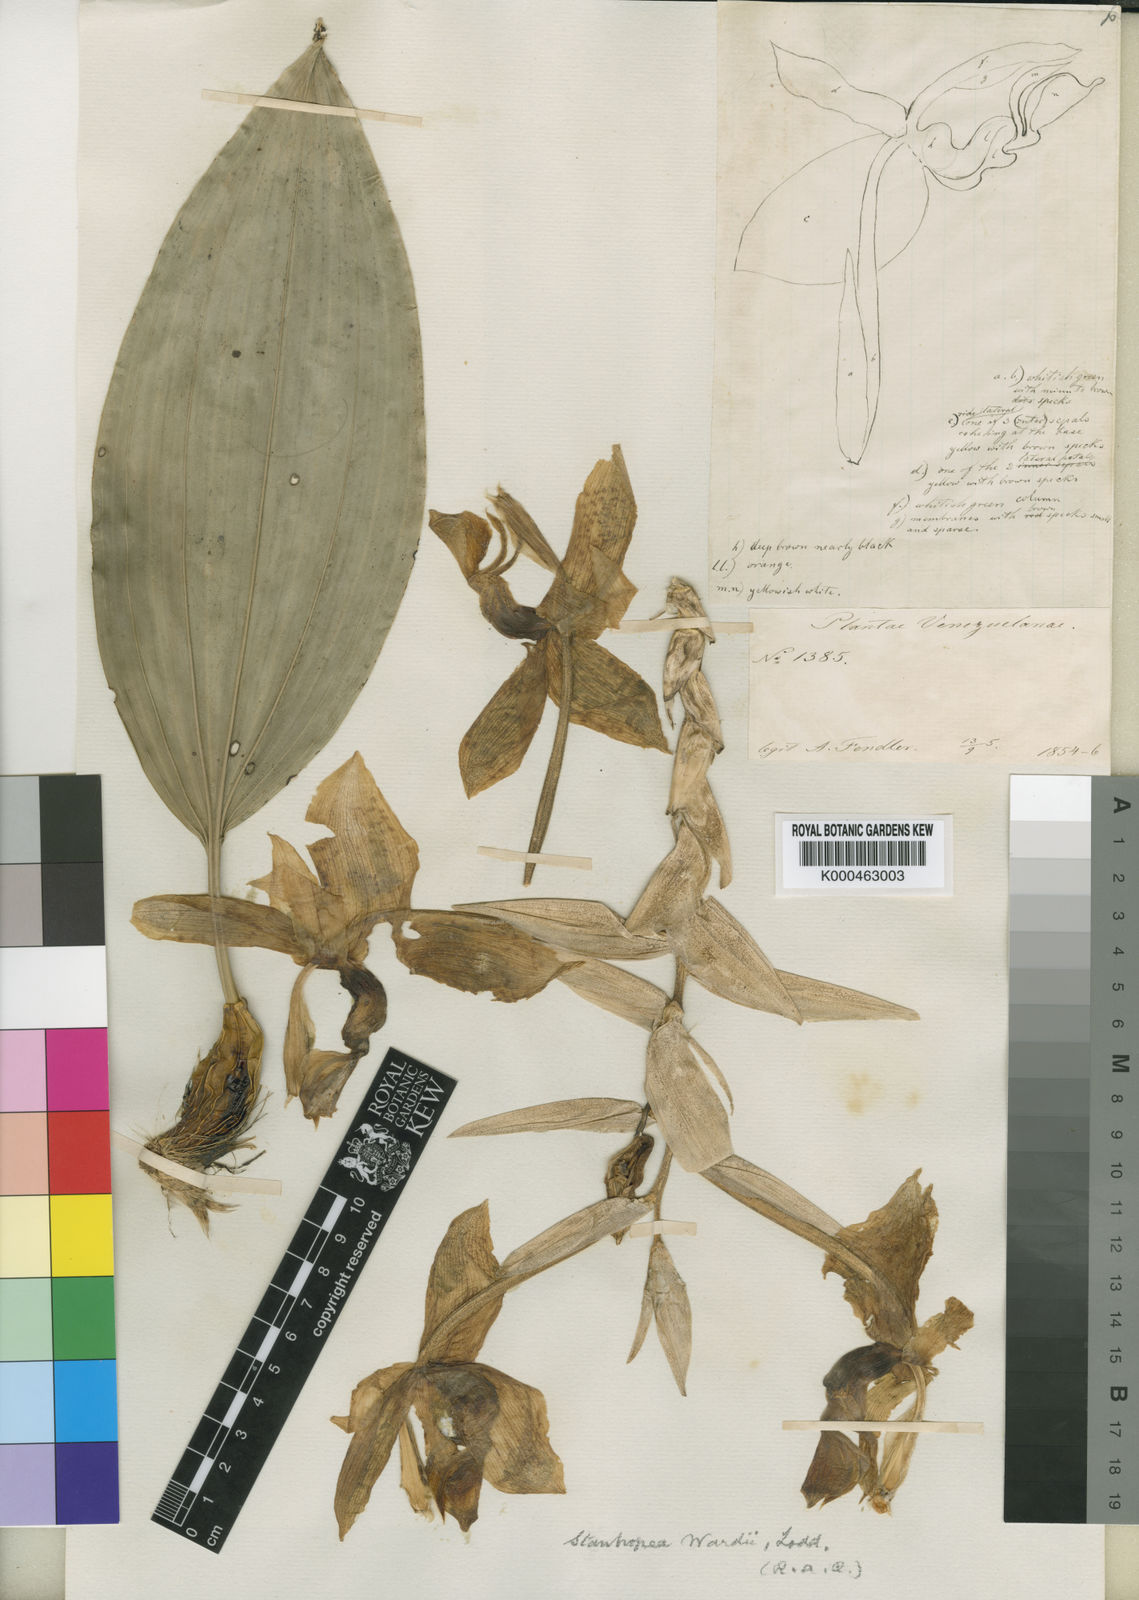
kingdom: Plantae
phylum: Tracheophyta
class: Liliopsida
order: Asparagales
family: Orchidaceae
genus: Stanhopea
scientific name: Stanhopea wardii
